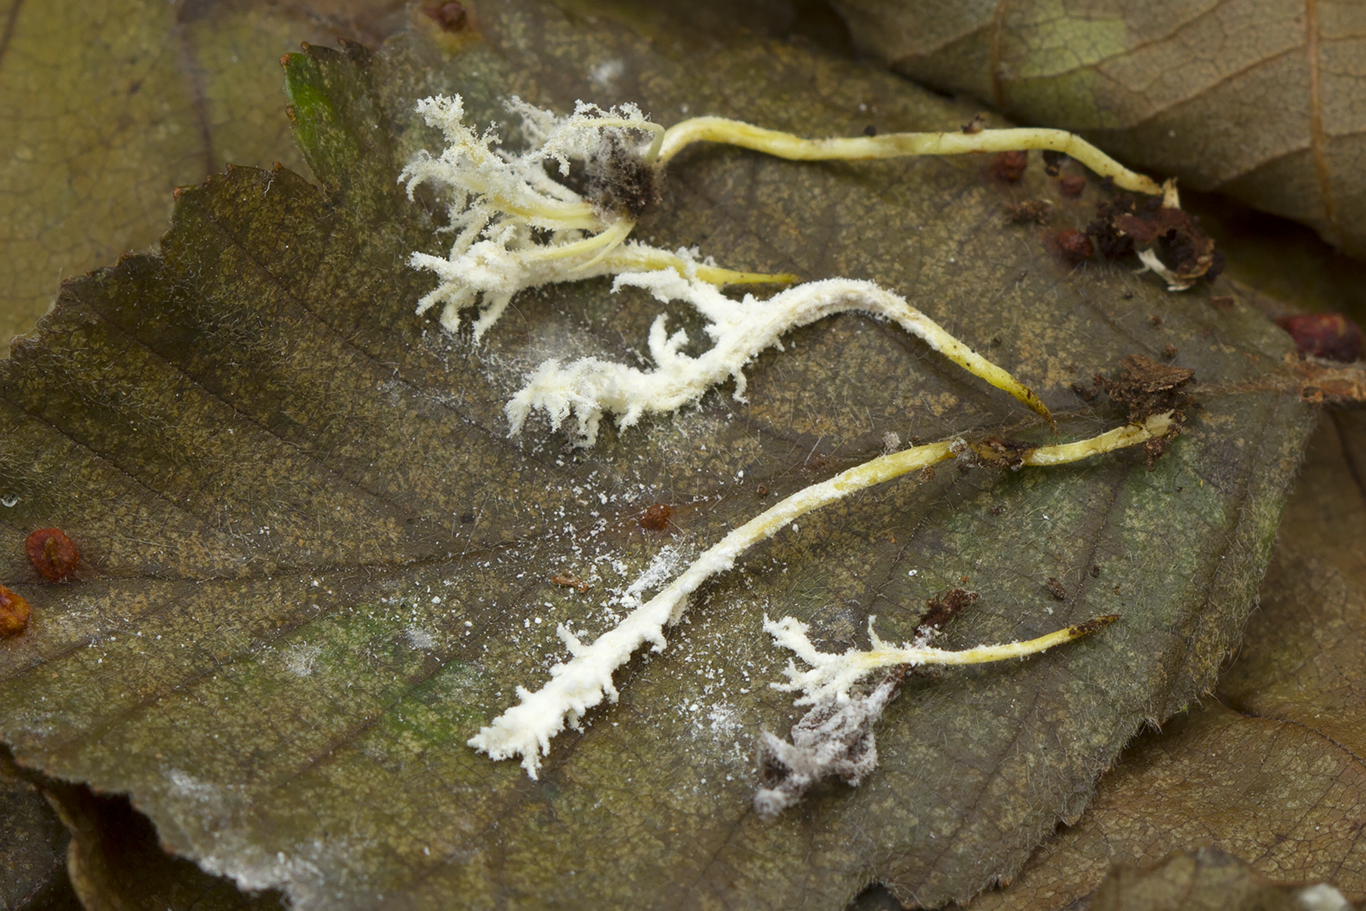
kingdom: Fungi
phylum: Ascomycota
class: Sordariomycetes
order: Hypocreales
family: Cordycipitaceae
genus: Cordyceps
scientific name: Cordyceps tenuipes
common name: støvende snyltekølle
